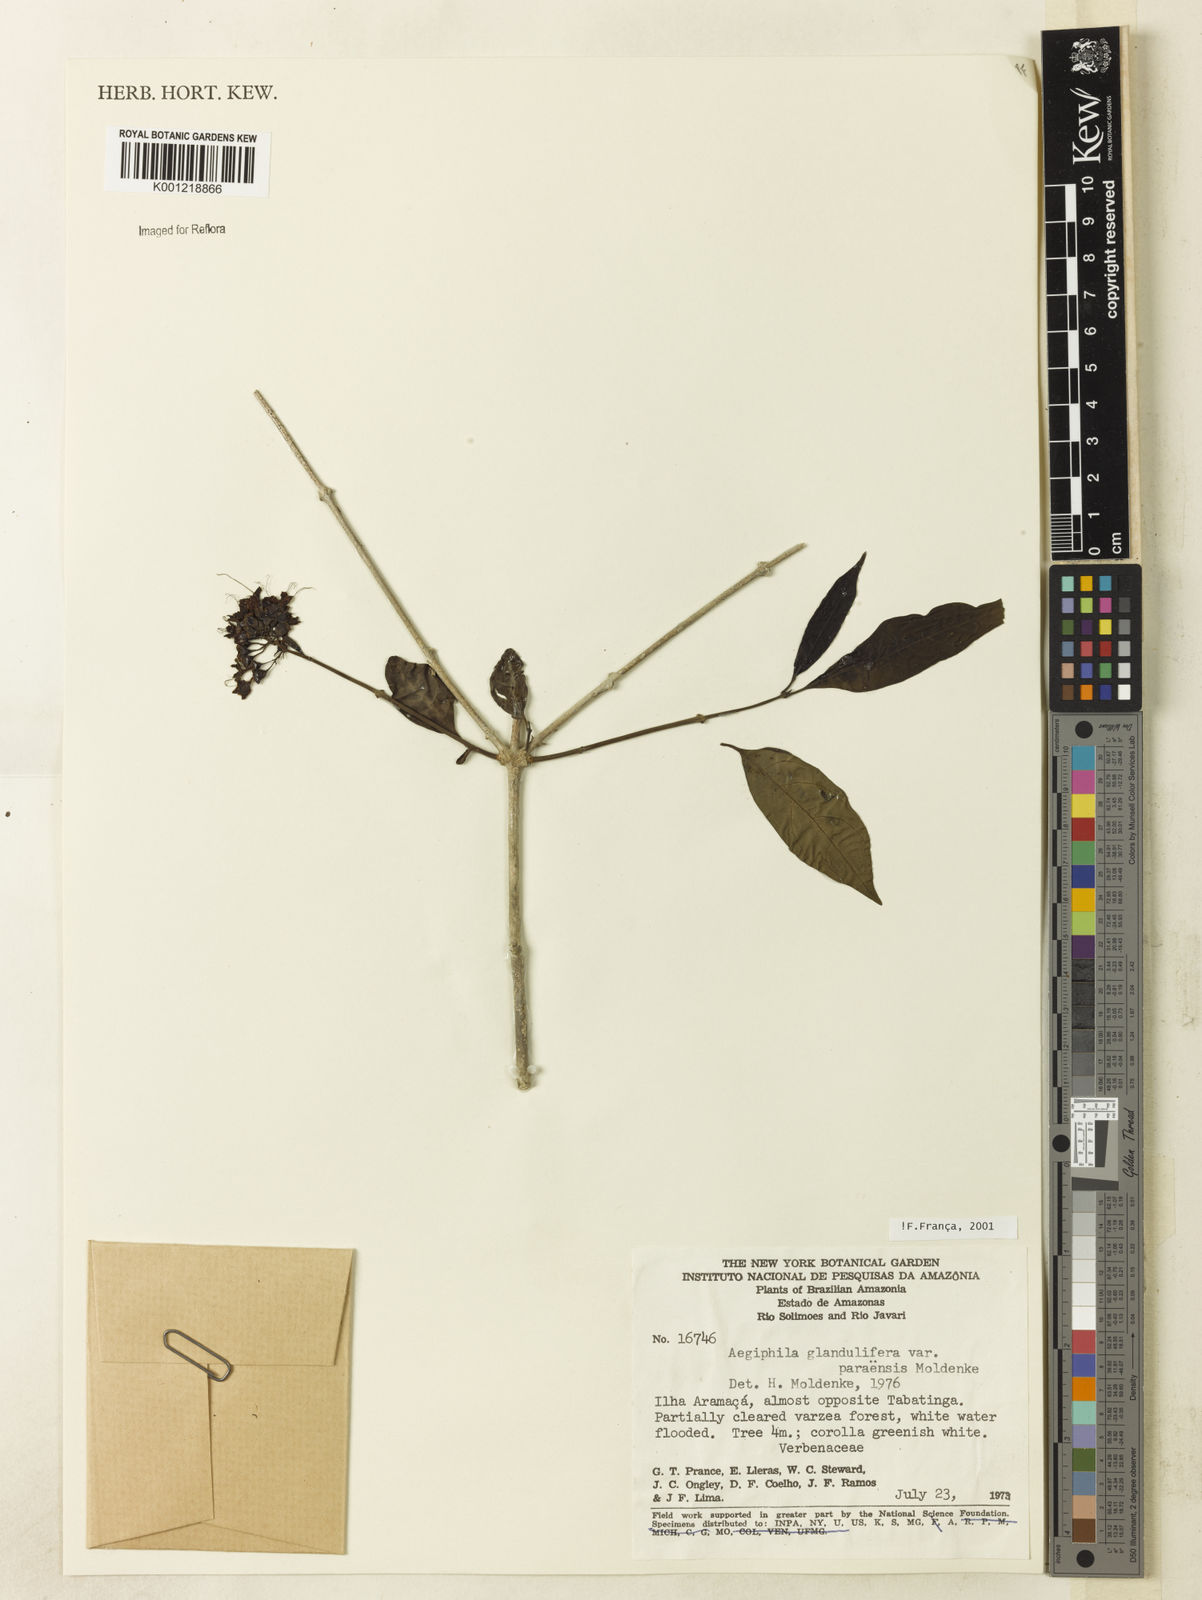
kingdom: Plantae
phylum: Tracheophyta
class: Magnoliopsida
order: Lamiales
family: Lamiaceae
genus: Aegiphila
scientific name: Aegiphila panamensis
